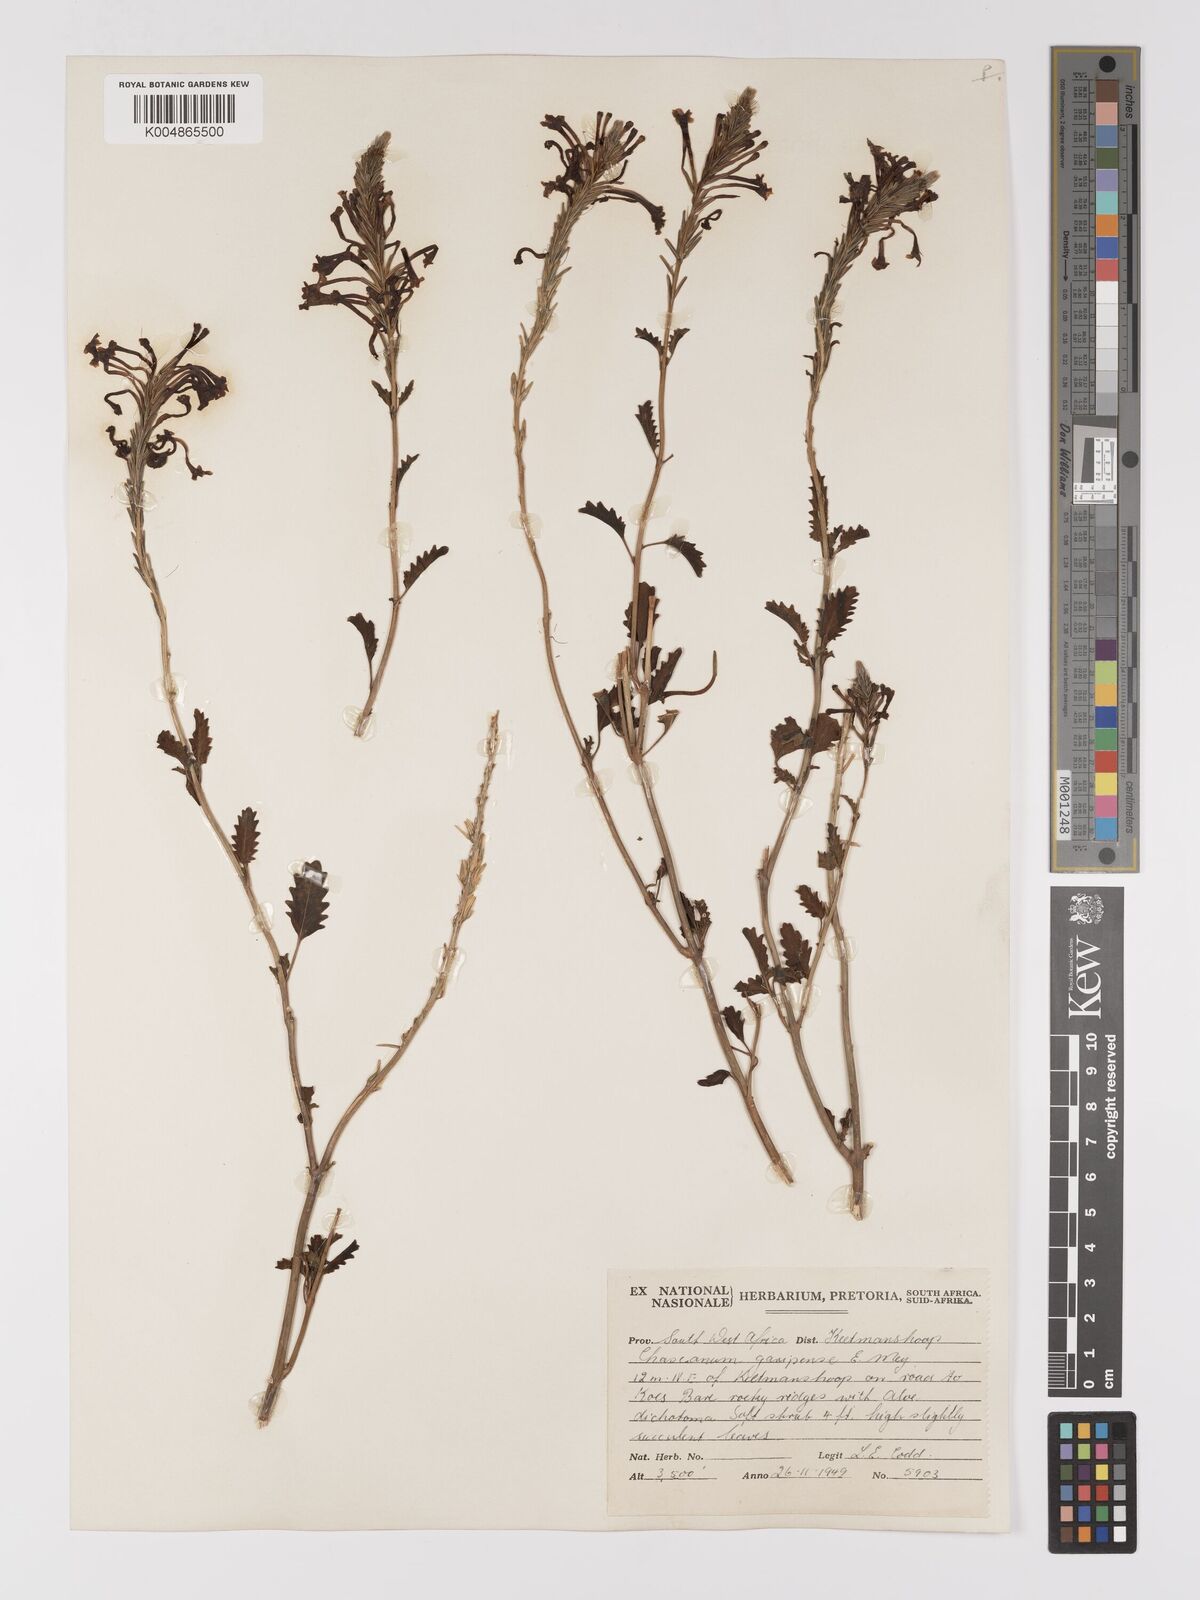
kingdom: Plantae
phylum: Tracheophyta
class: Magnoliopsida
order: Lamiales
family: Verbenaceae
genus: Chascanum
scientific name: Chascanum garipense
